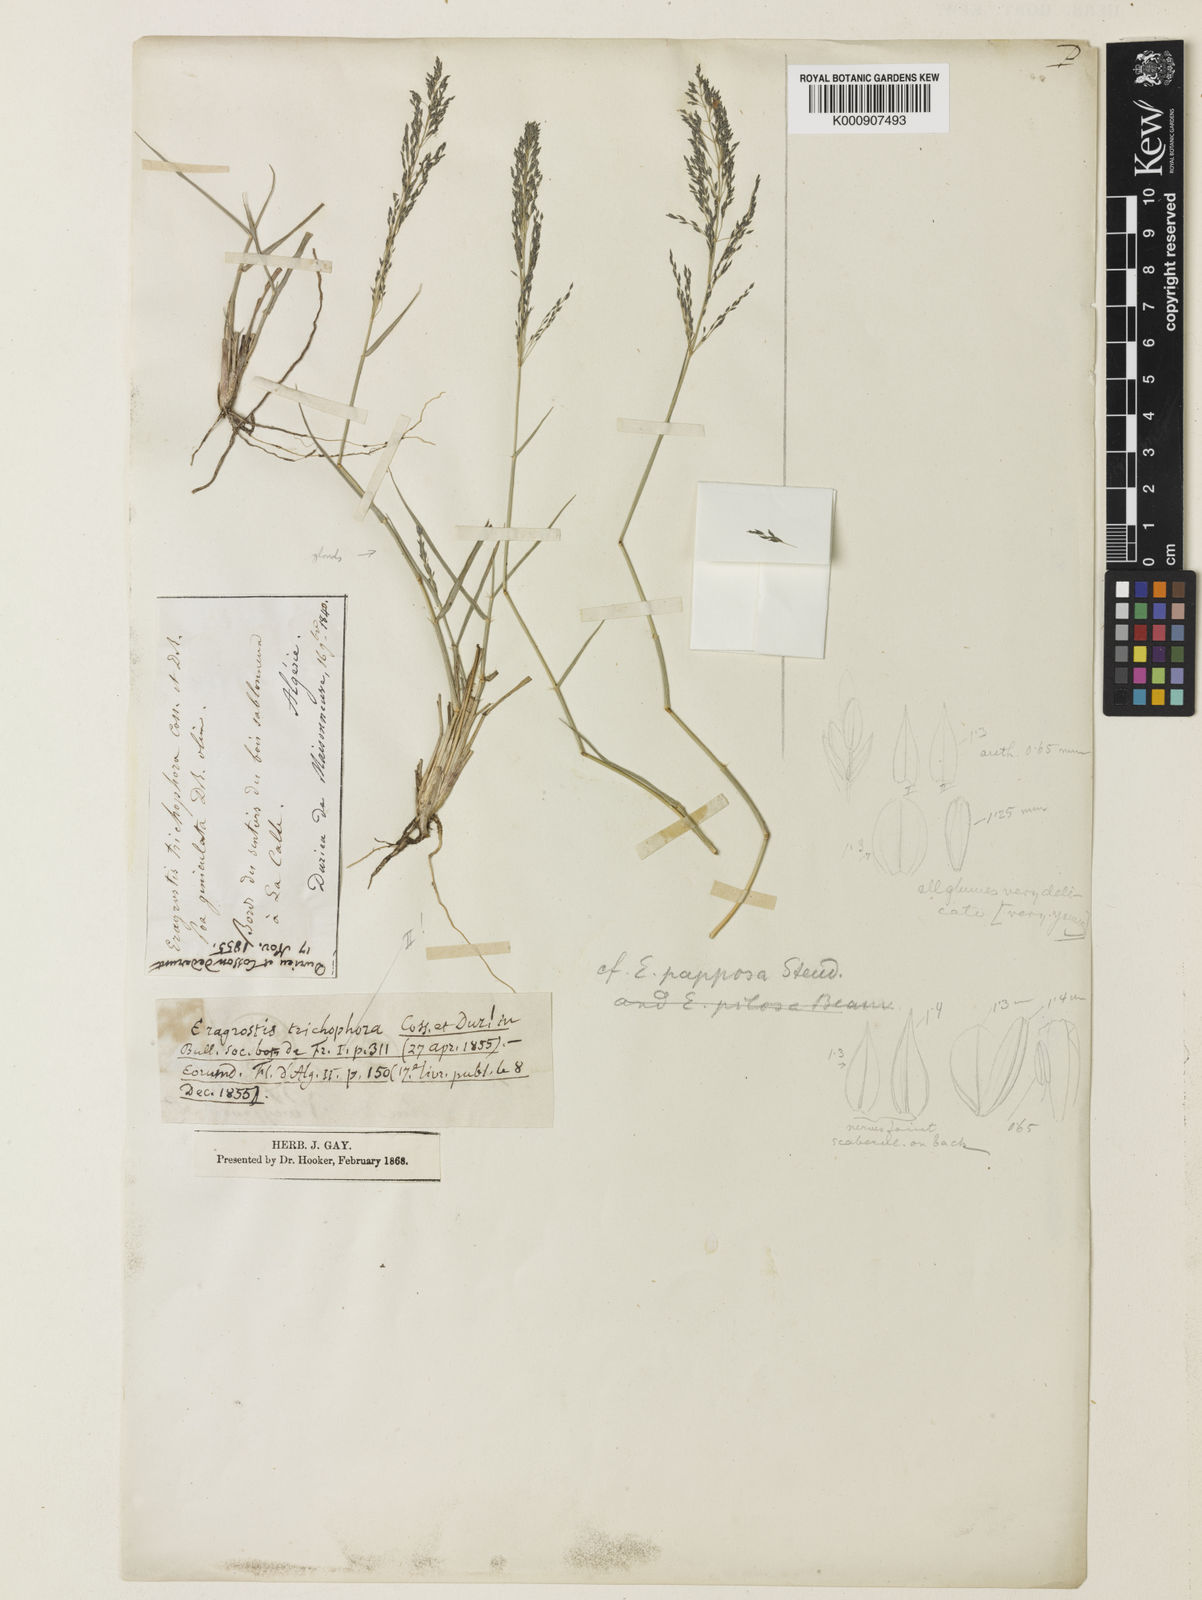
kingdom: Plantae
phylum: Tracheophyta
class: Liliopsida
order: Poales
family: Poaceae
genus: Eragrostis
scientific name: Eragrostis cylindriflora
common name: Cylinderflower lovegrass
